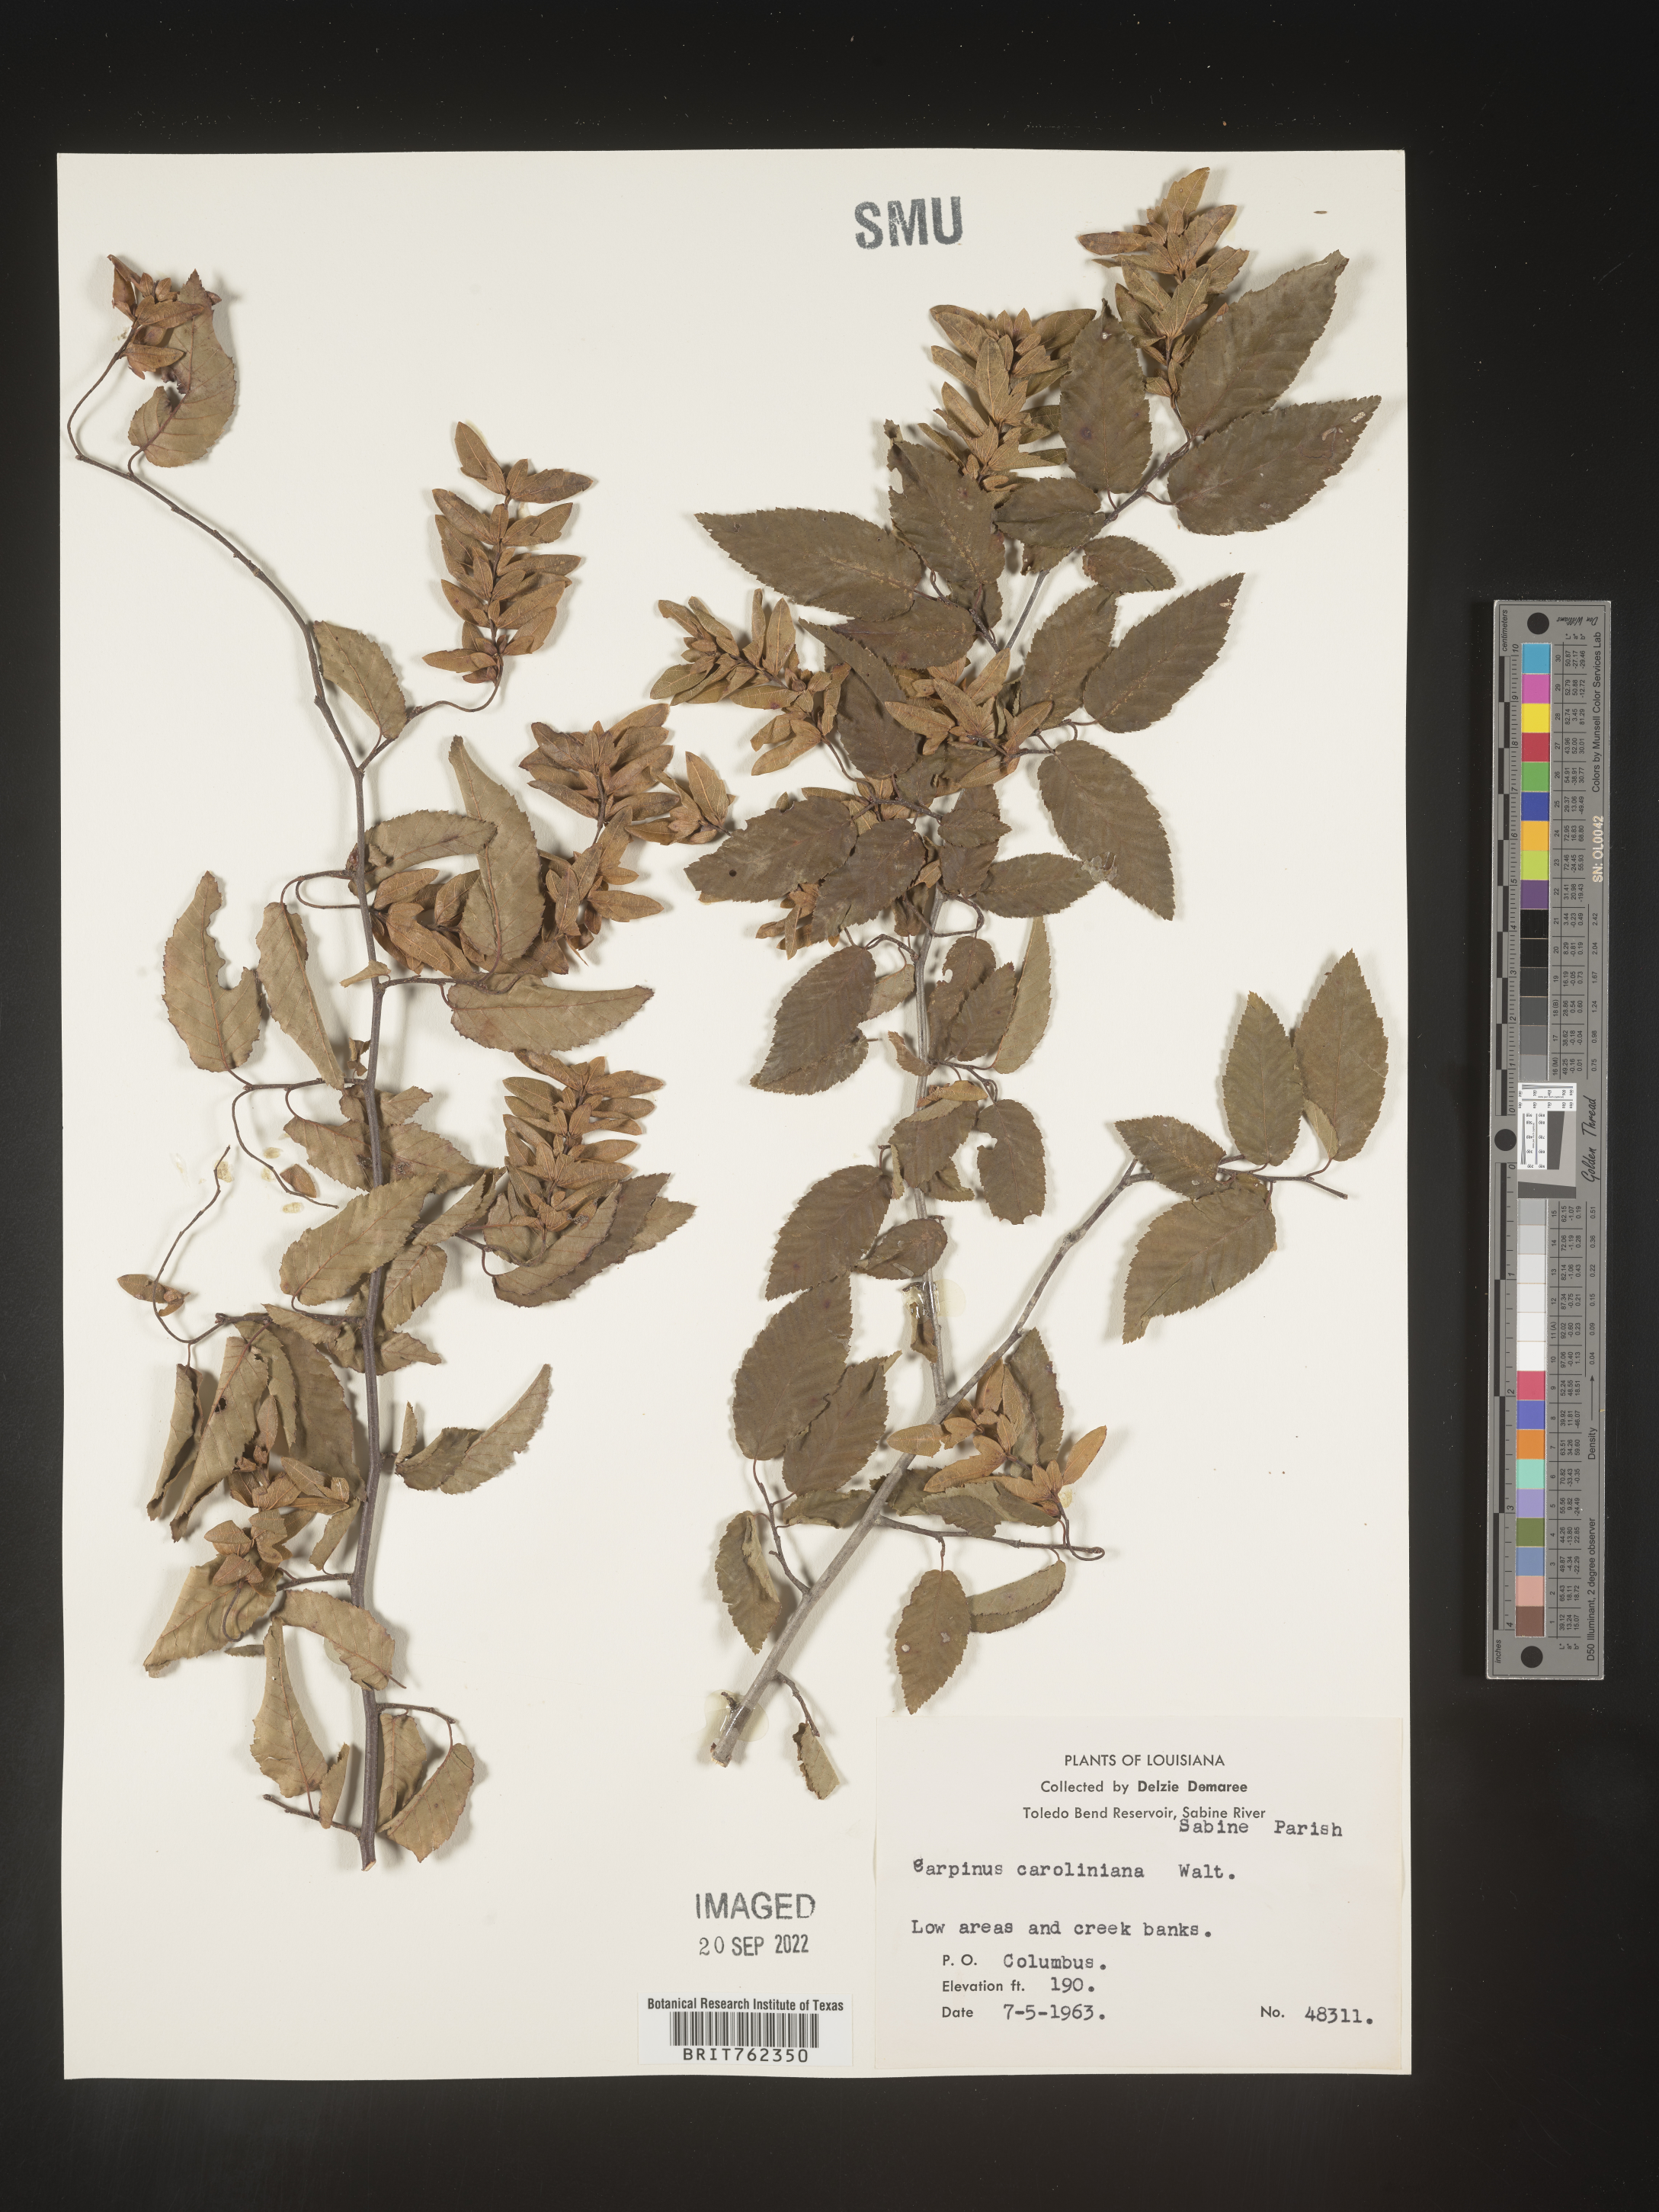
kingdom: Plantae
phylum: Tracheophyta
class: Magnoliopsida
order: Fagales
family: Betulaceae
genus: Carpinus
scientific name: Carpinus caroliniana
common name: American hornbeam
